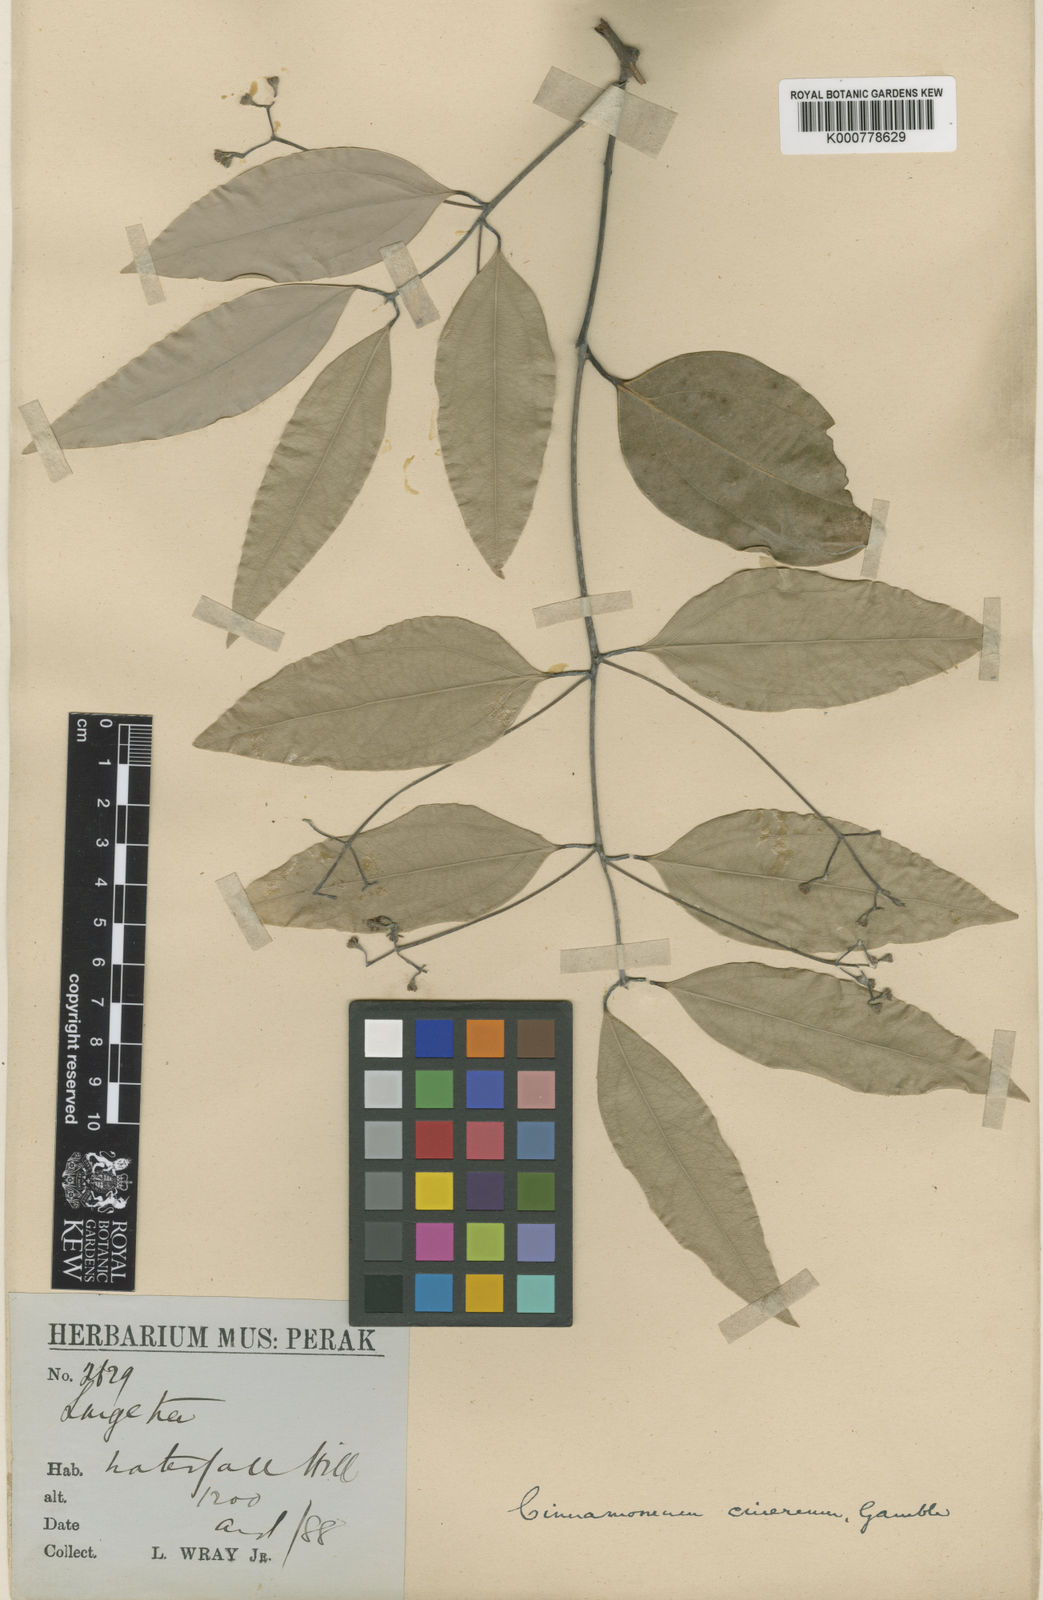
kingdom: Plantae
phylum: Tracheophyta
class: Magnoliopsida
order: Laurales
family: Lauraceae
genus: Cinnamomum
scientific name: Cinnamomum sintoc
